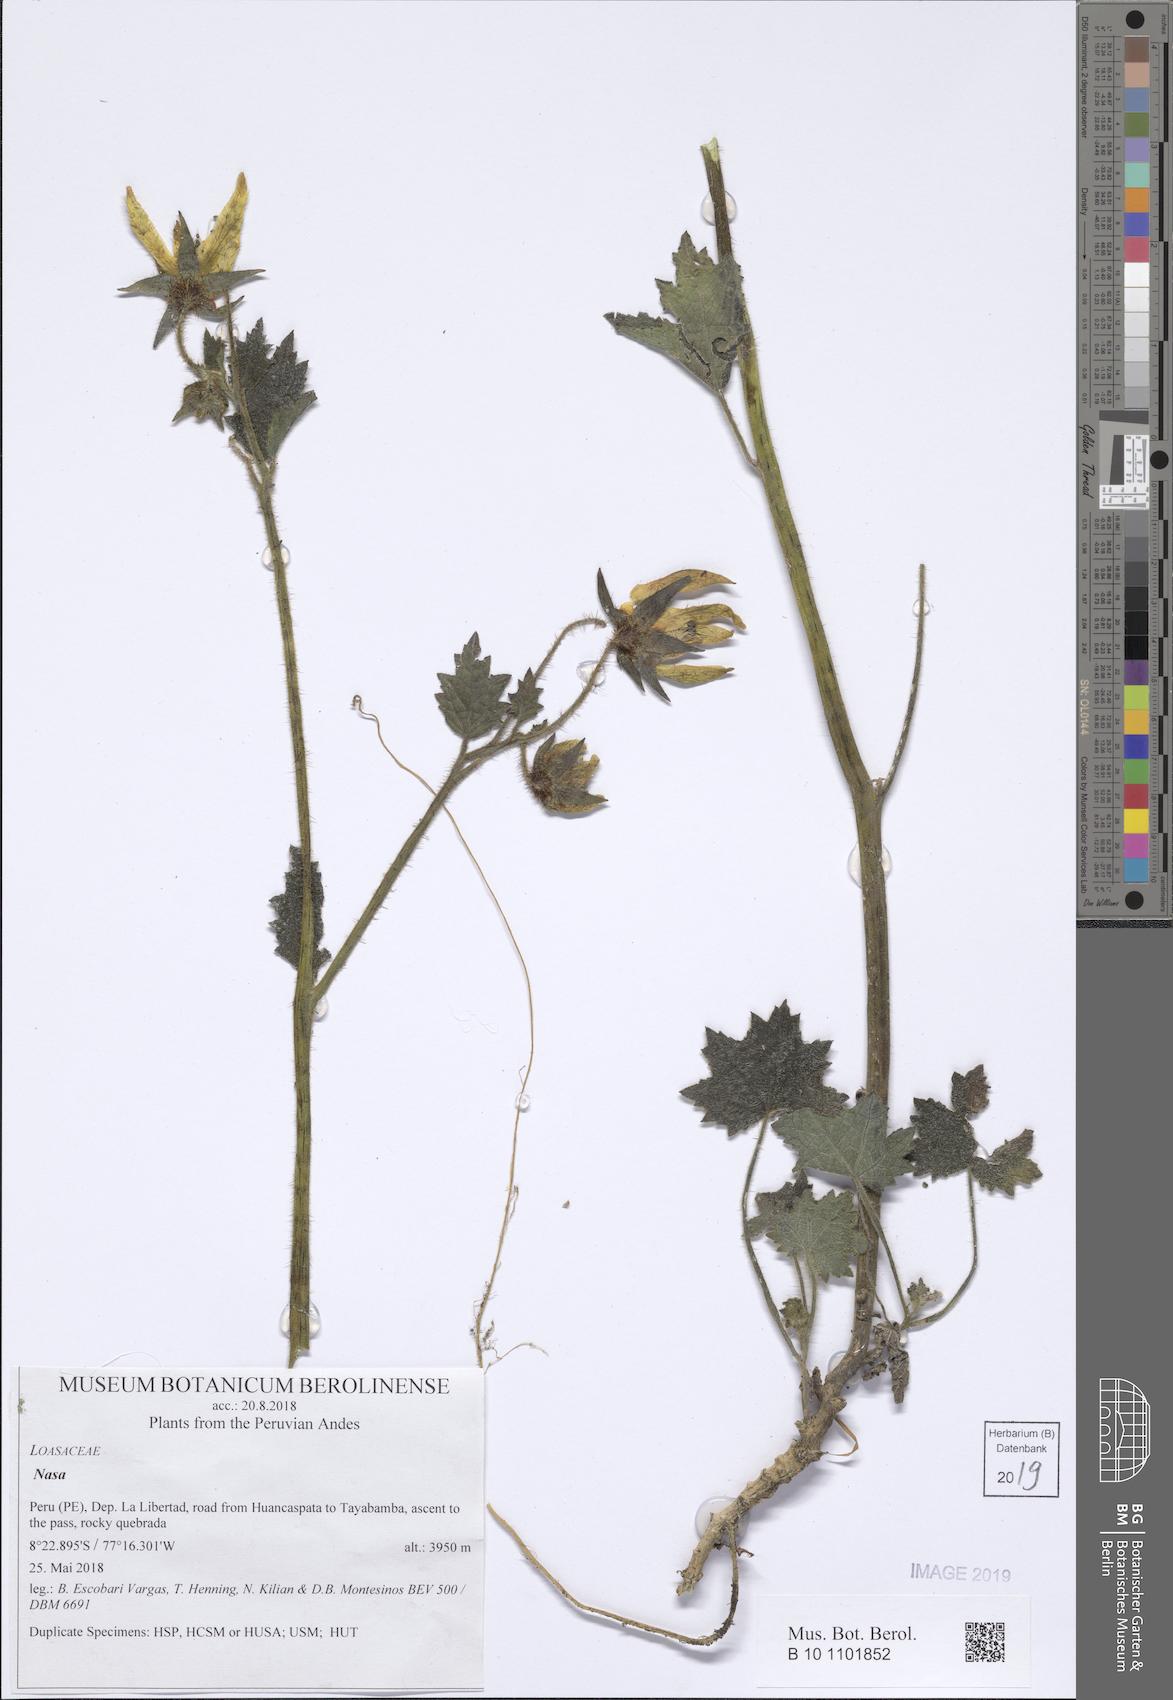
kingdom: Plantae
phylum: Tracheophyta
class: Magnoliopsida
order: Cornales
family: Loasaceae
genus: Nasa
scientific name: Nasa ranunculifolia
